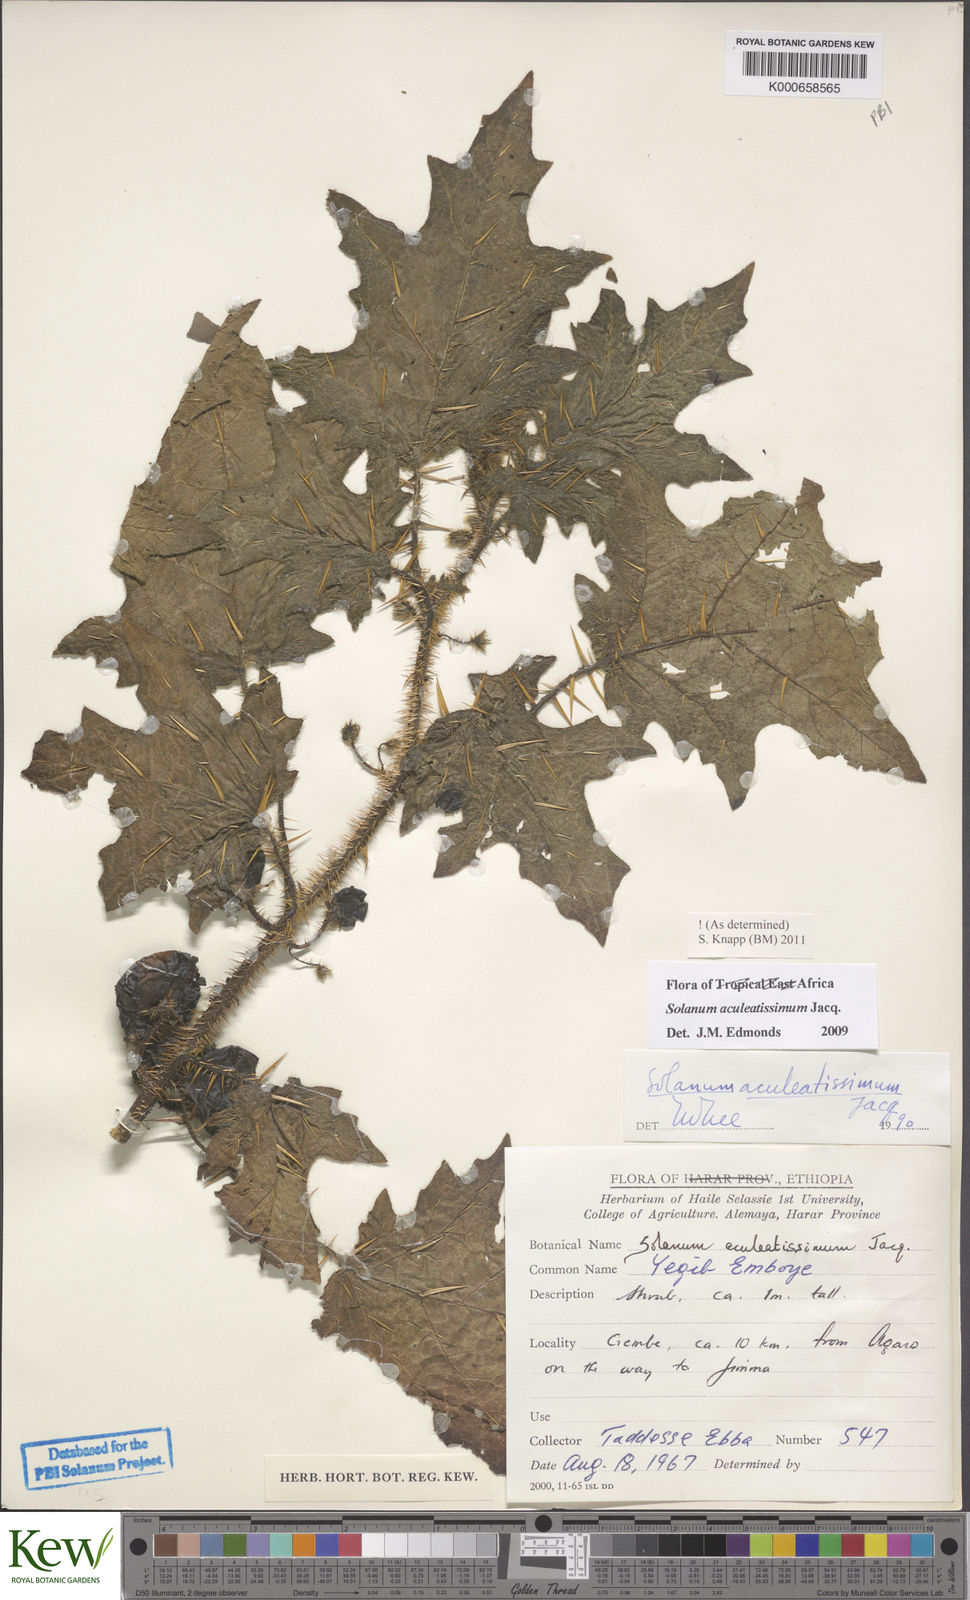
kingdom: Plantae
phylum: Tracheophyta
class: Magnoliopsida
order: Solanales
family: Solanaceae
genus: Solanum
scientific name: Solanum aculeatissimum
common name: Dutch eggplant
